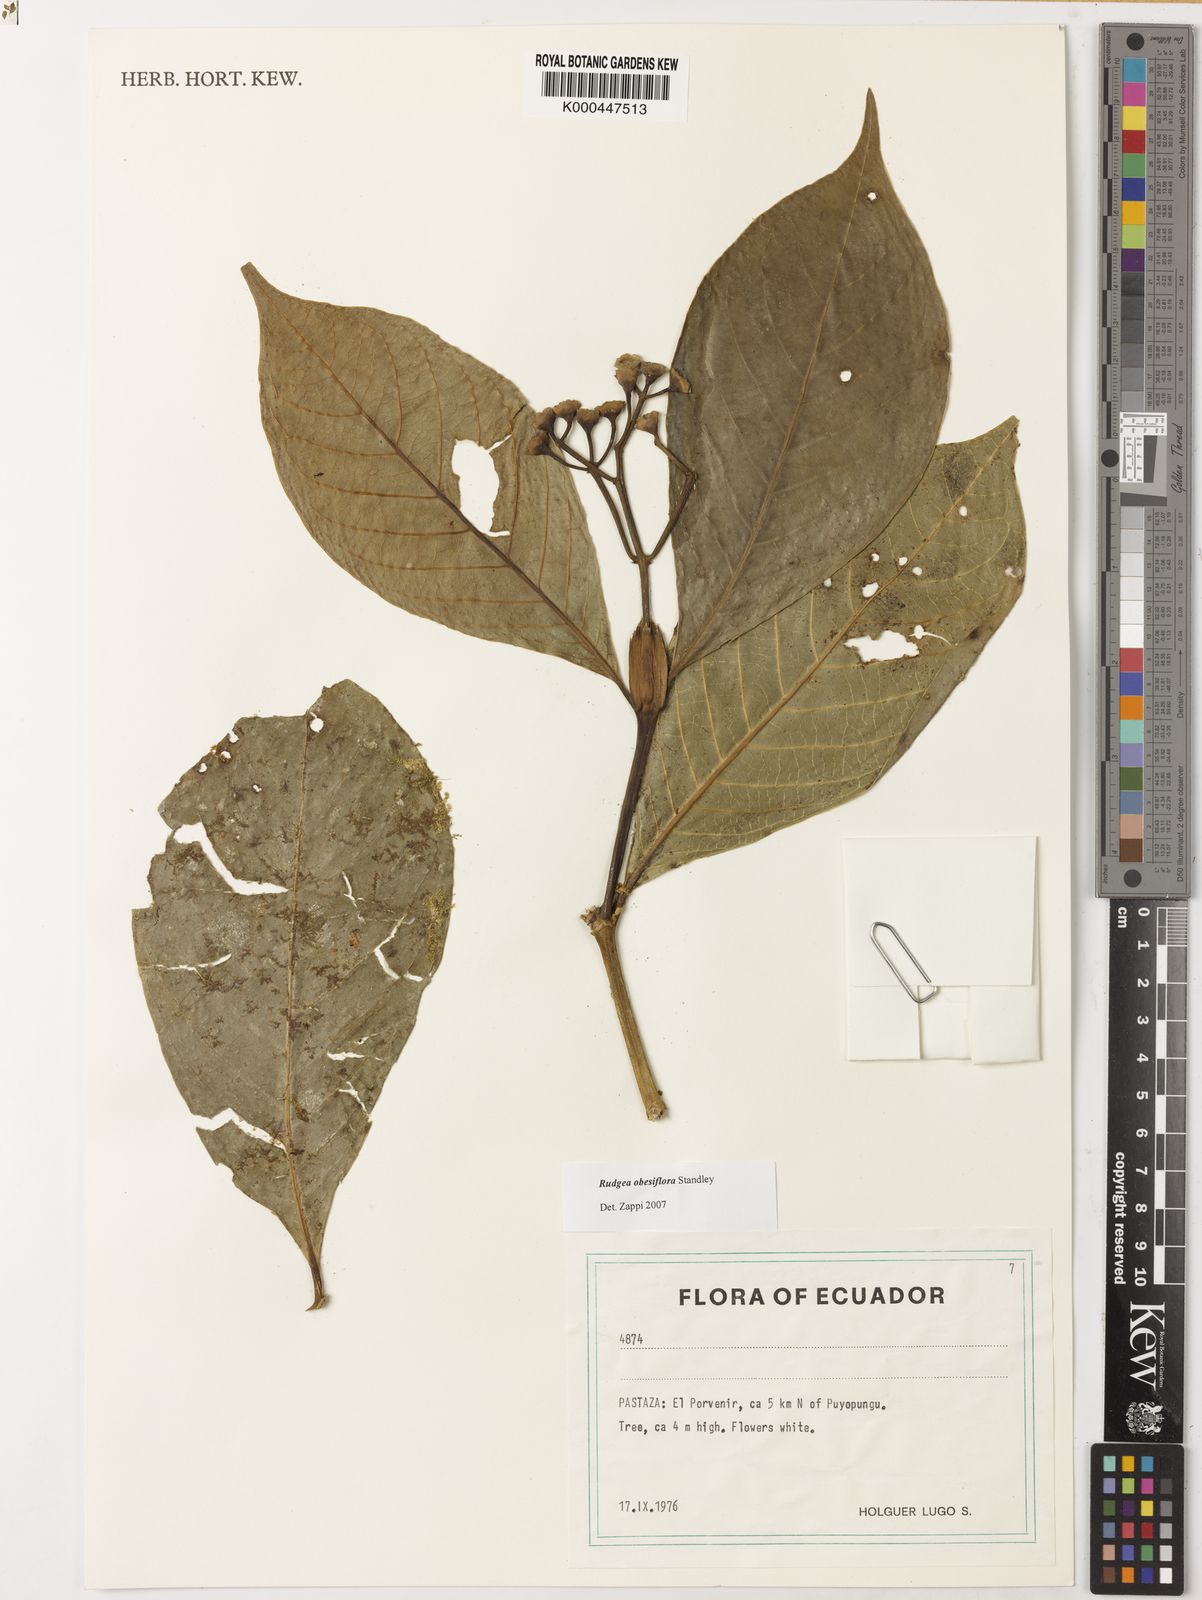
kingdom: Plantae
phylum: Tracheophyta
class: Magnoliopsida
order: Gentianales
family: Rubiaceae
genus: Rudgea
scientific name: Rudgea obesiflora
